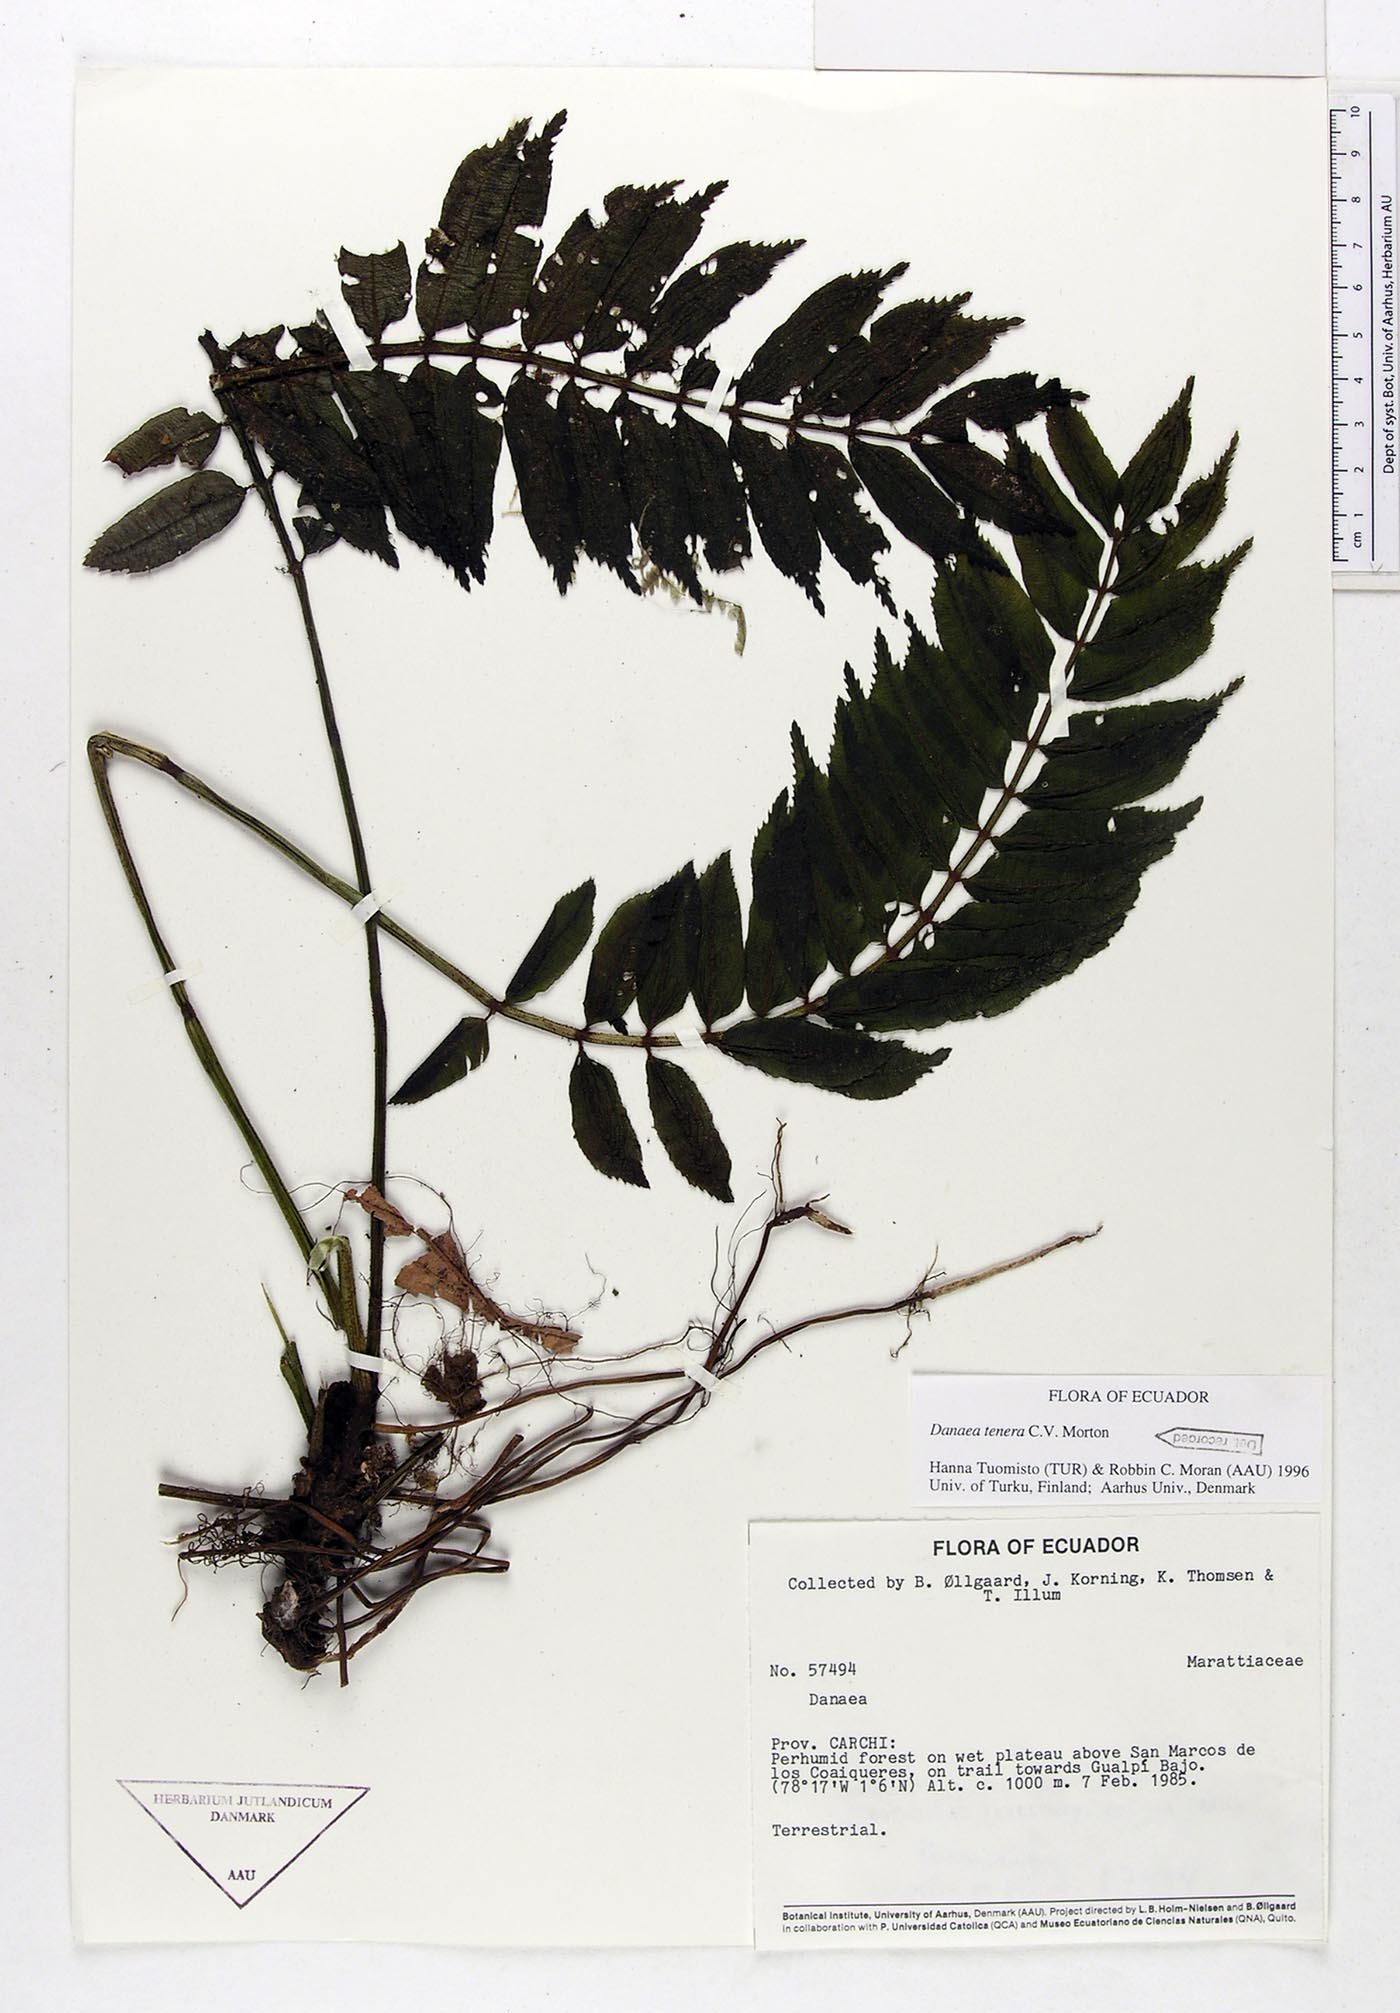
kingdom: Plantae
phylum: Tracheophyta
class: Polypodiopsida
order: Marattiales
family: Marattiaceae
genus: Danaea
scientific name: Danaea tenera
